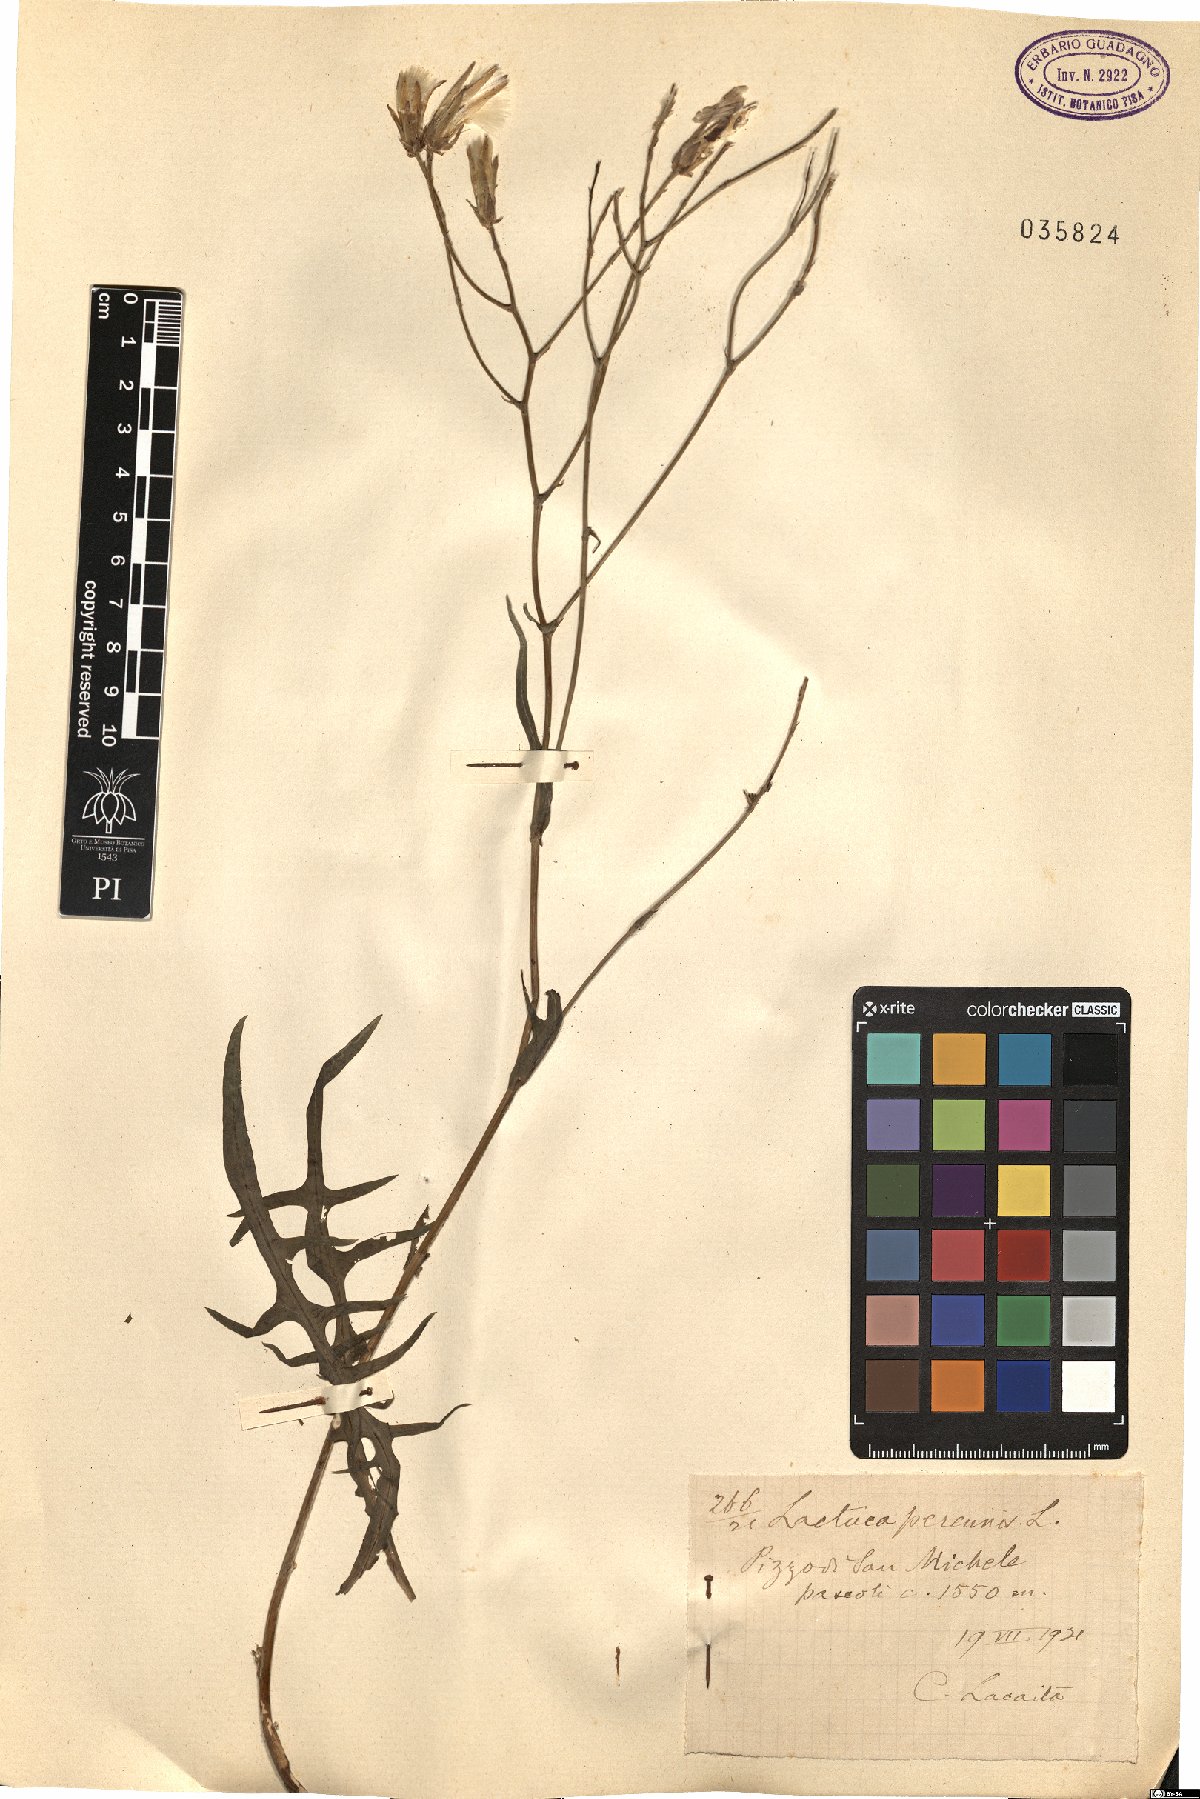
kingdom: Plantae
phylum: Tracheophyta
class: Magnoliopsida
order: Asterales
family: Asteraceae
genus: Lactuca
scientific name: Lactuca perennis
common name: Mountain lettuce
